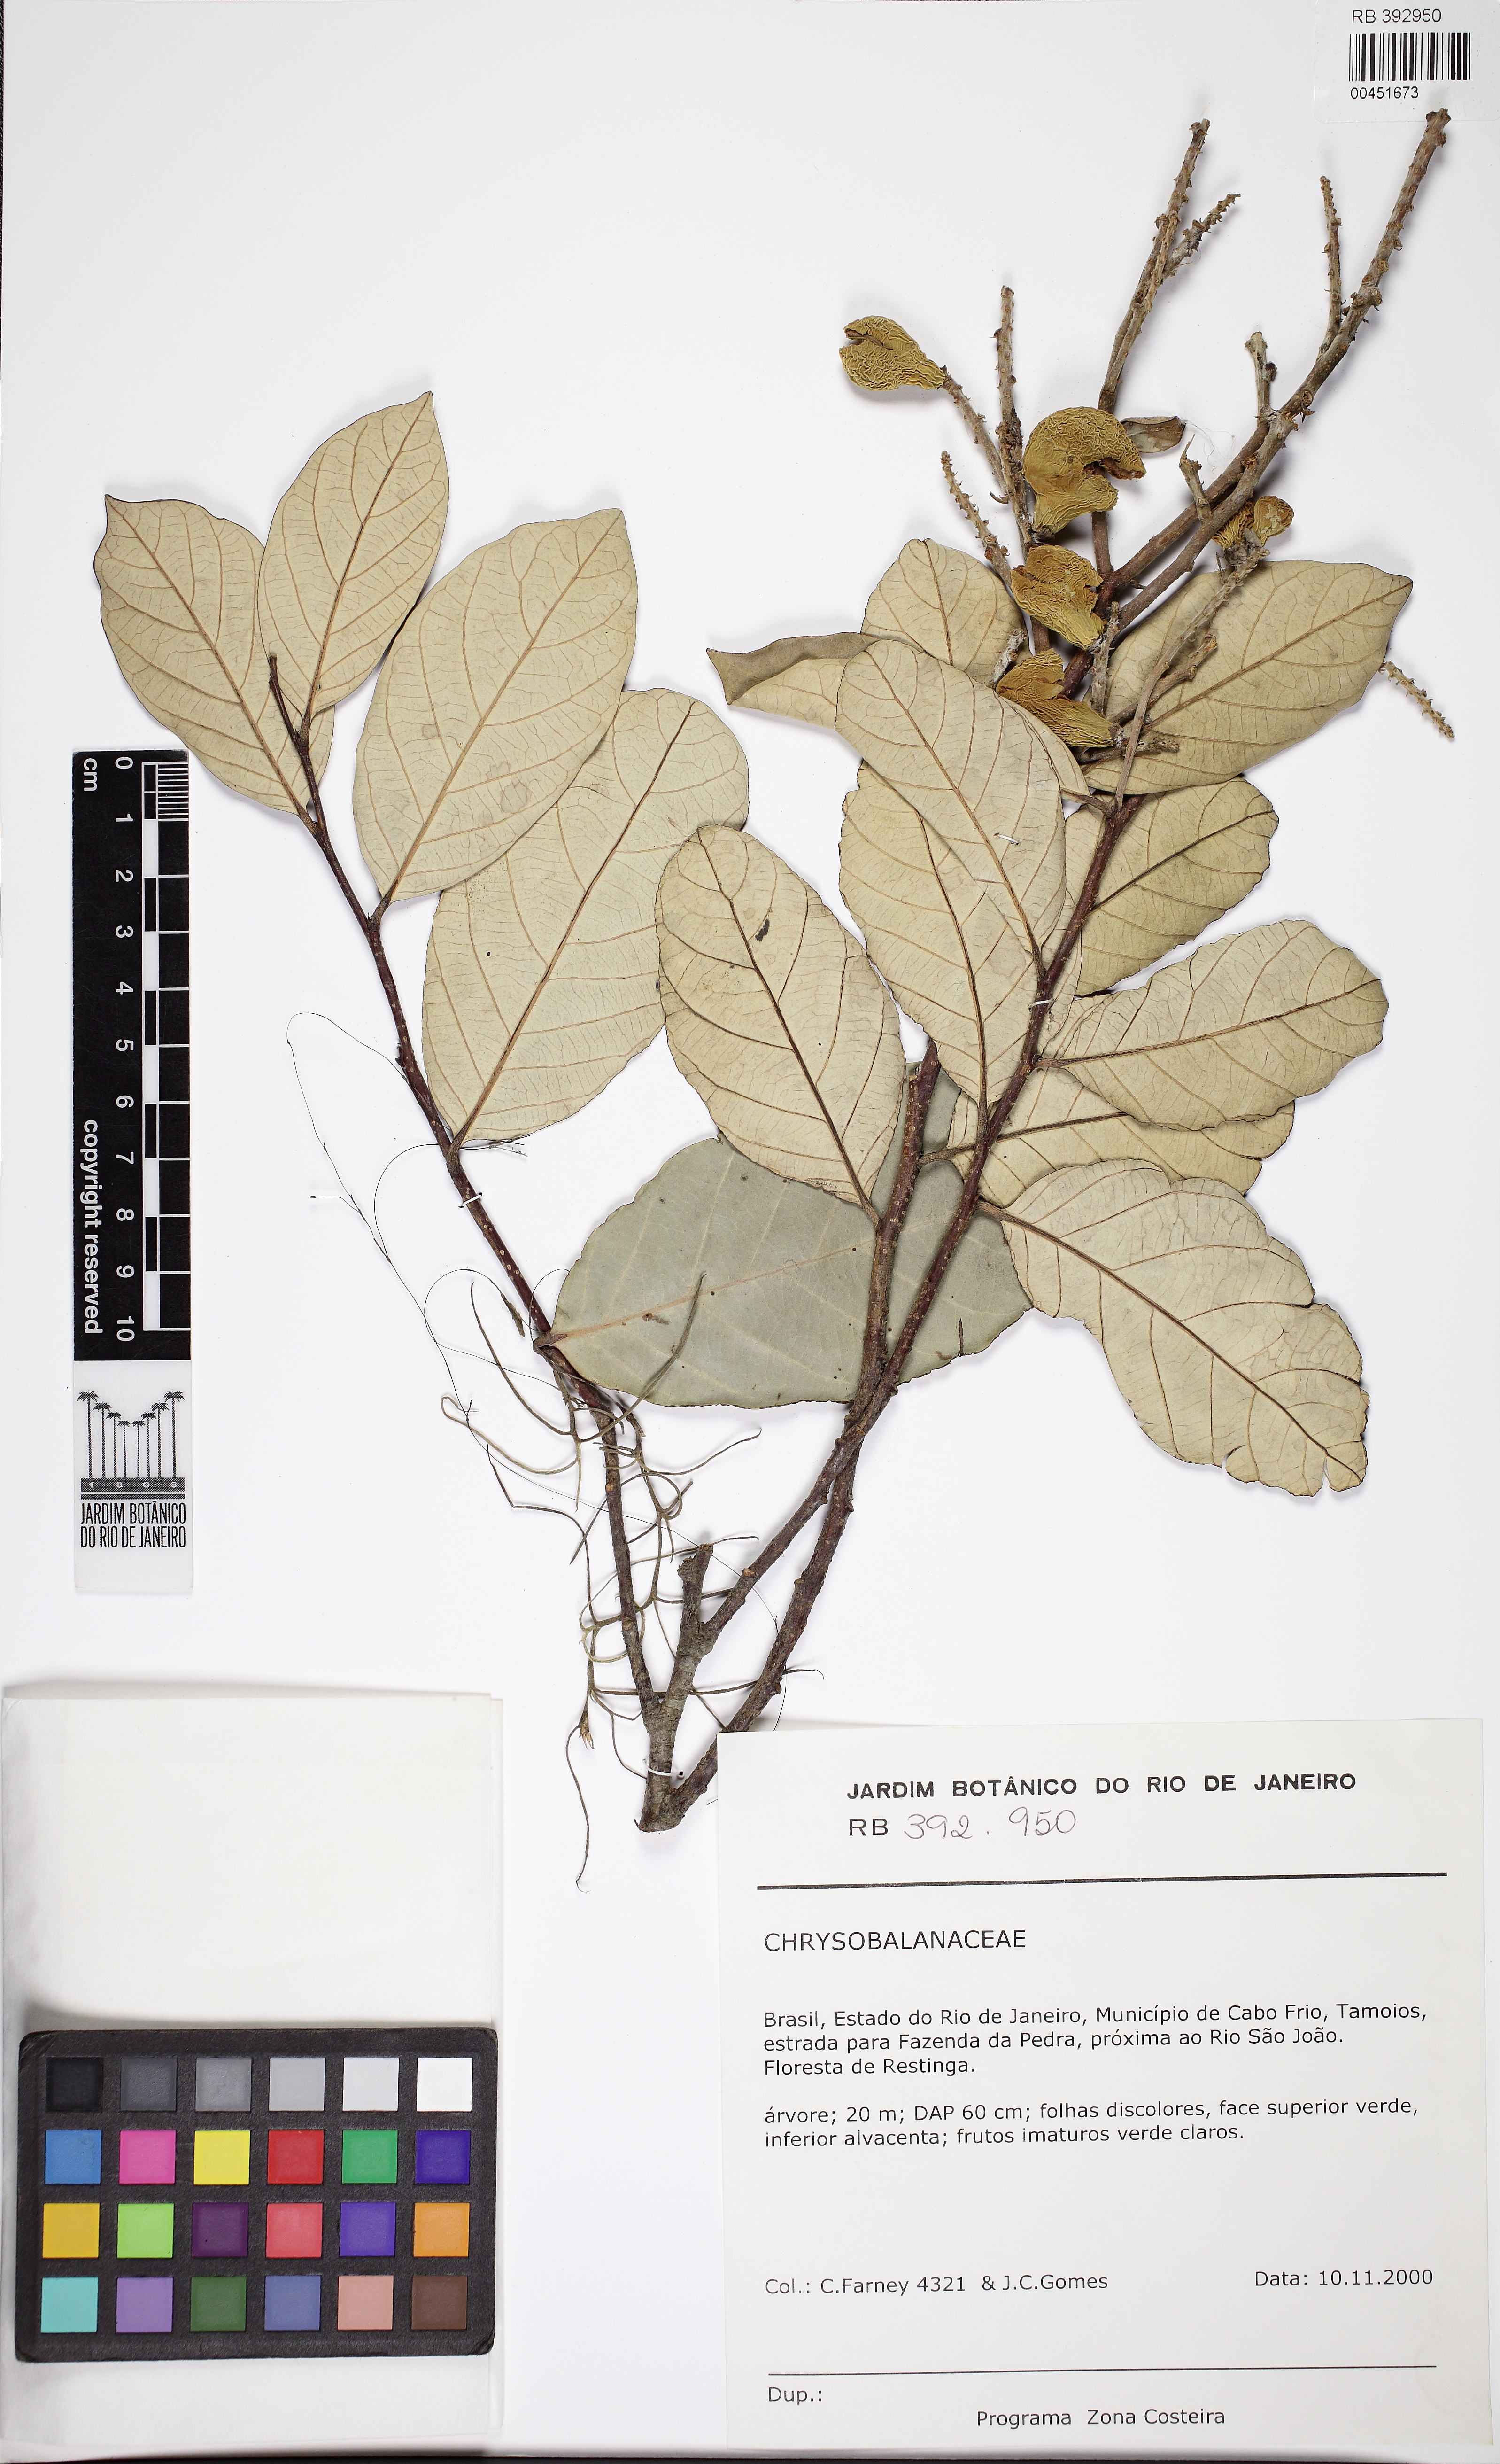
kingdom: Plantae
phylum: Tracheophyta
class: Magnoliopsida
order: Malpighiales
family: Chrysobalanaceae
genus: Licania
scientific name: Licania
